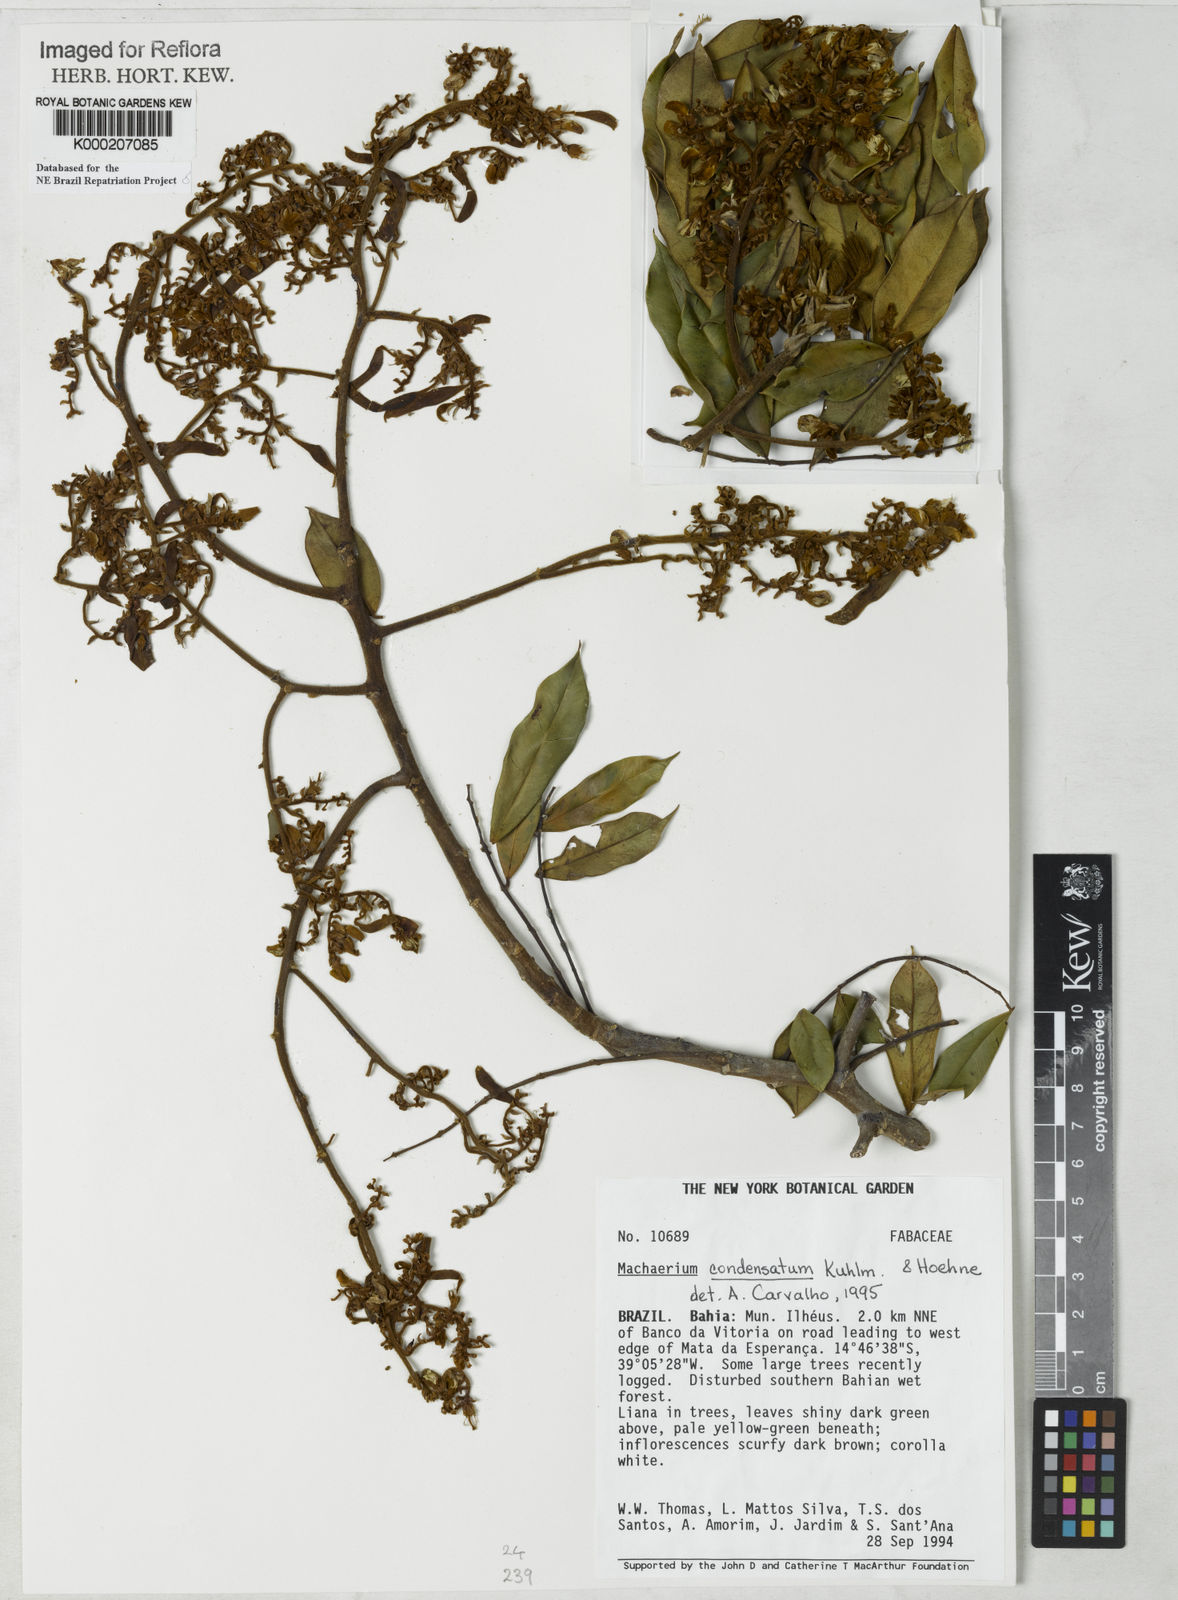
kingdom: Plantae
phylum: Tracheophyta
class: Magnoliopsida
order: Fabales
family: Fabaceae
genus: Machaerium
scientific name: Machaerium condensatum
